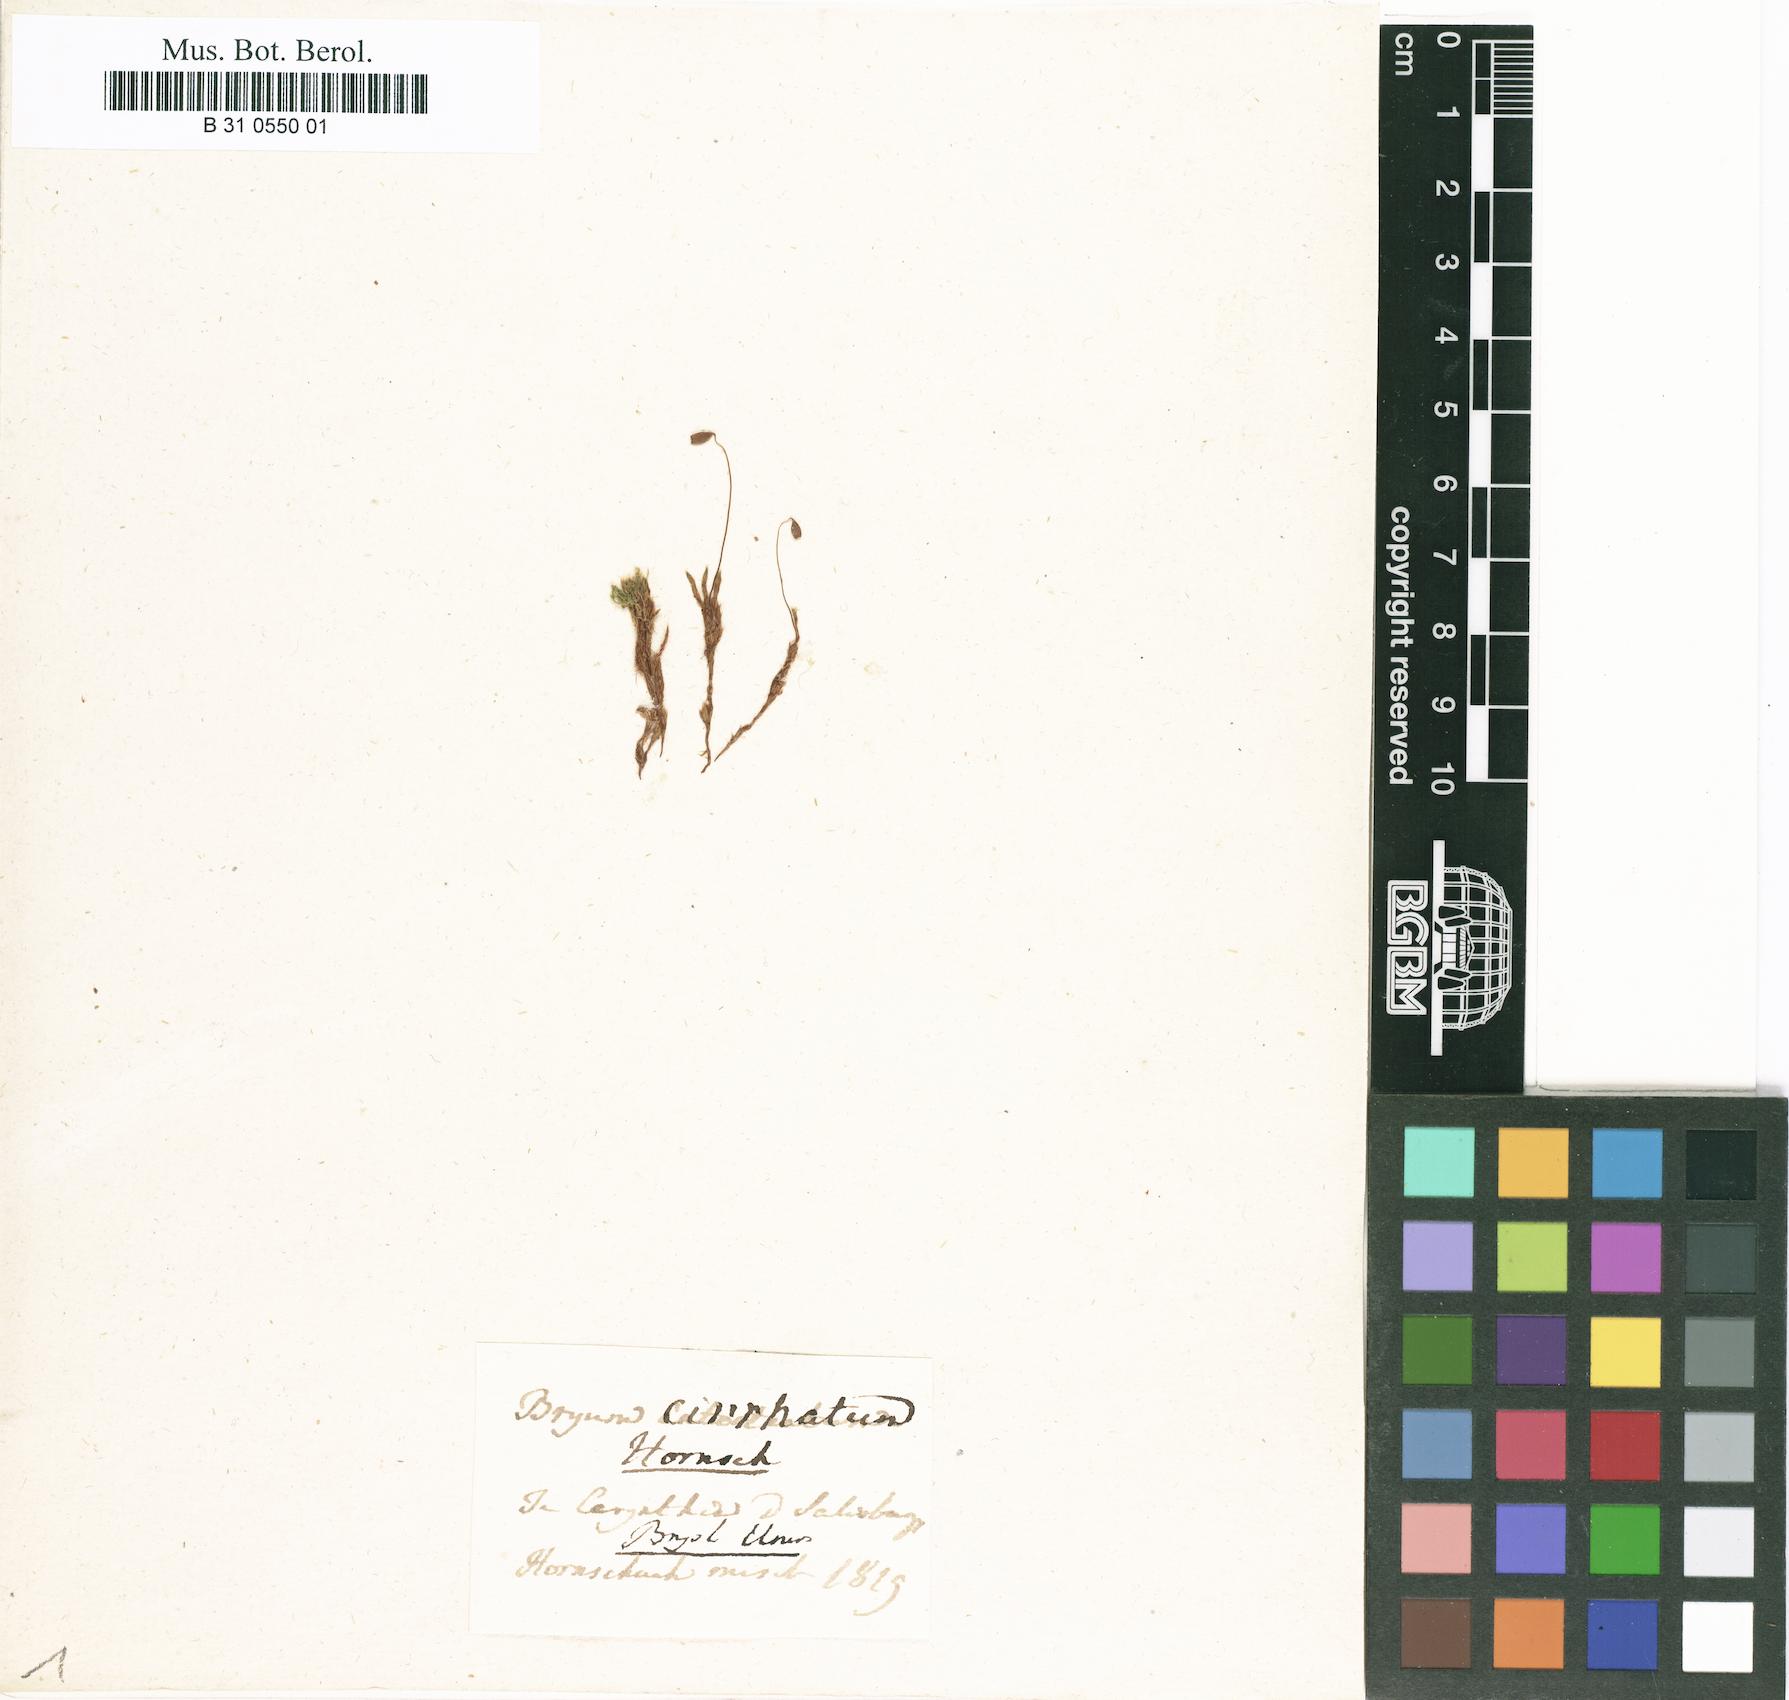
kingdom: Plantae
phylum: Bryophyta
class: Bryopsida
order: Bryales
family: Bryaceae
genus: Ptychostomum
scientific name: Ptychostomum lonchocaulon
